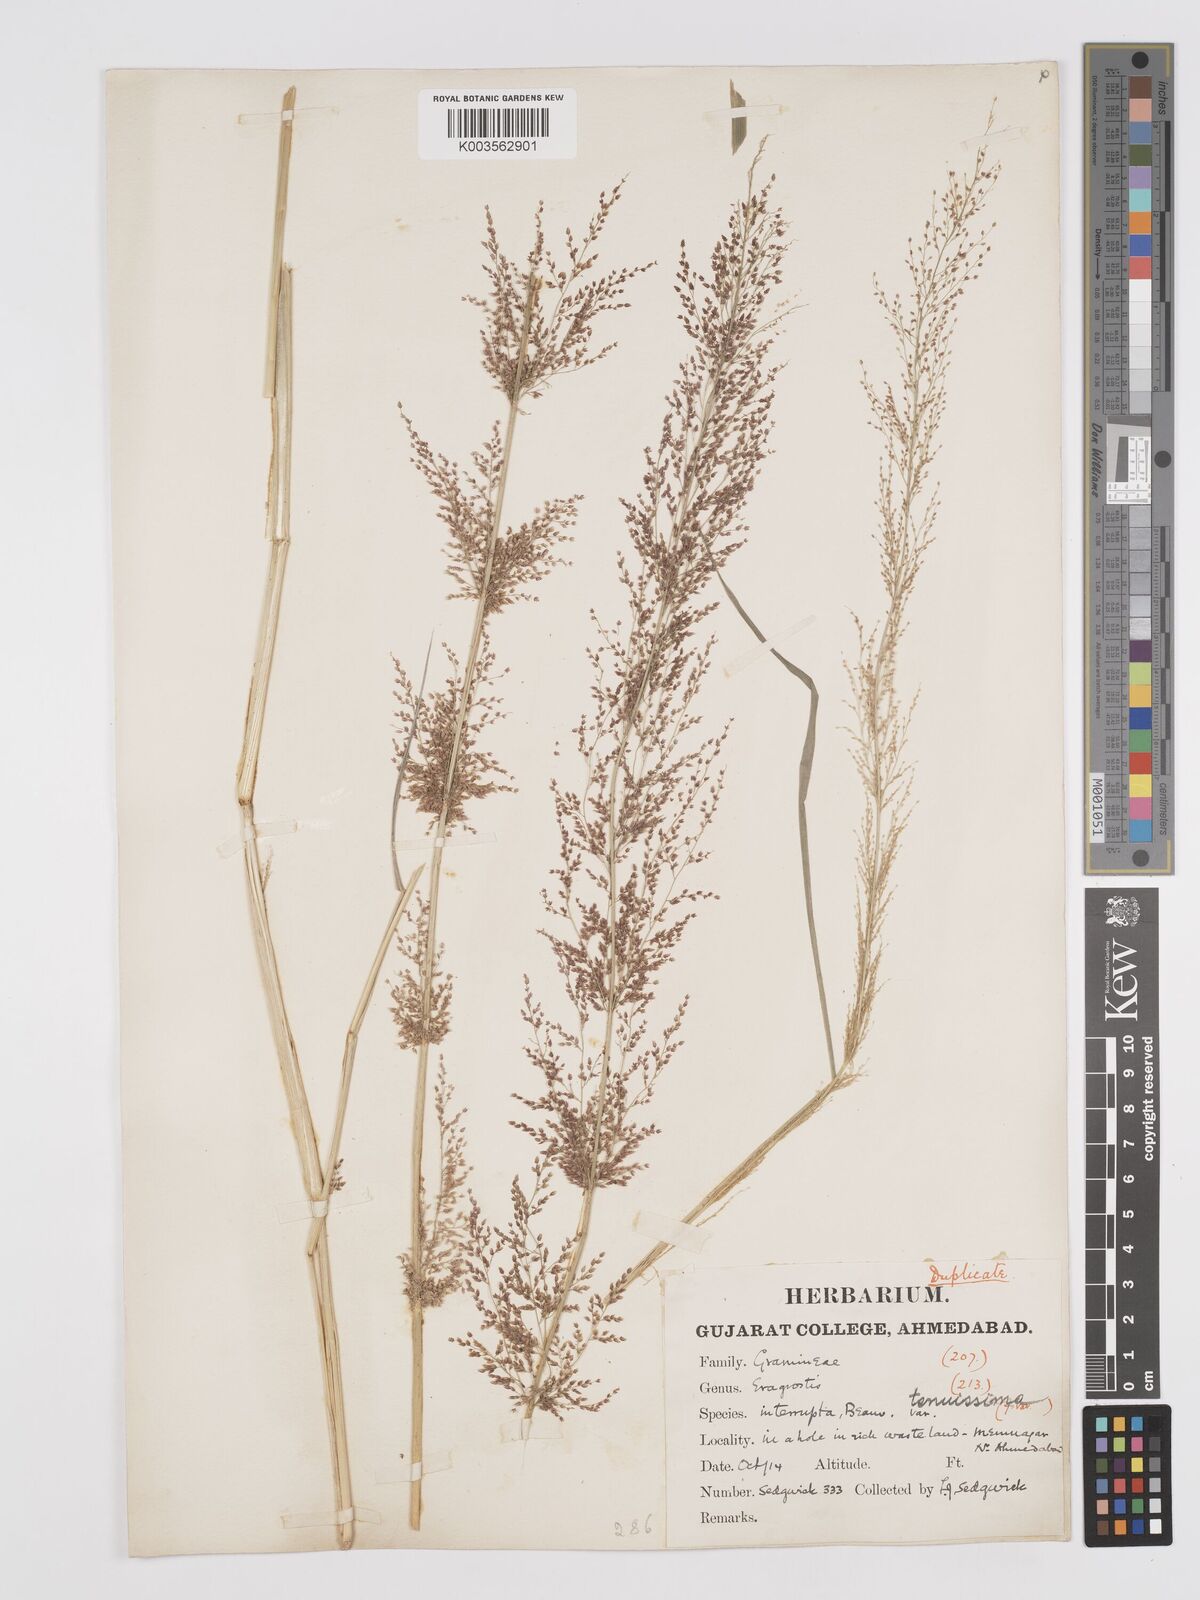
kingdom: Plantae
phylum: Tracheophyta
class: Liliopsida
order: Poales
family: Poaceae
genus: Eragrostis
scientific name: Eragrostis japonica
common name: Pond lovegrass
